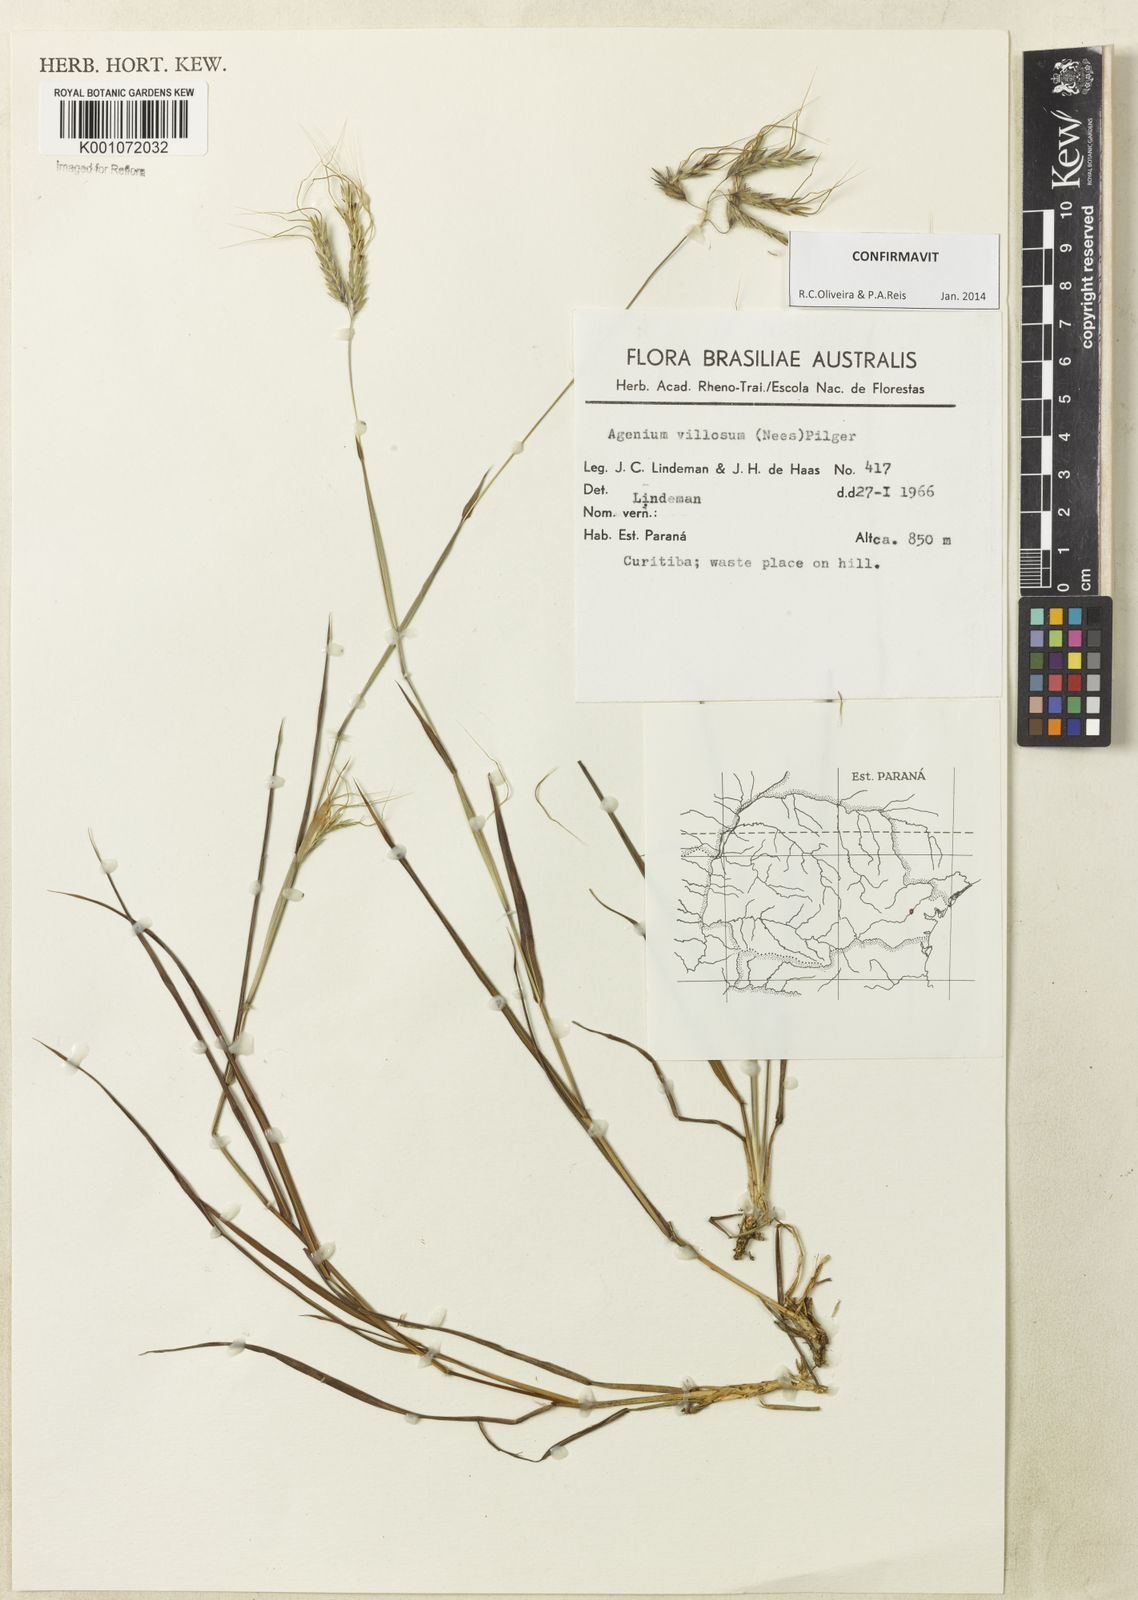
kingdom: Plantae
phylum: Tracheophyta
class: Liliopsida
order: Poales
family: Poaceae
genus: Agenium
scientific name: Agenium villosum
